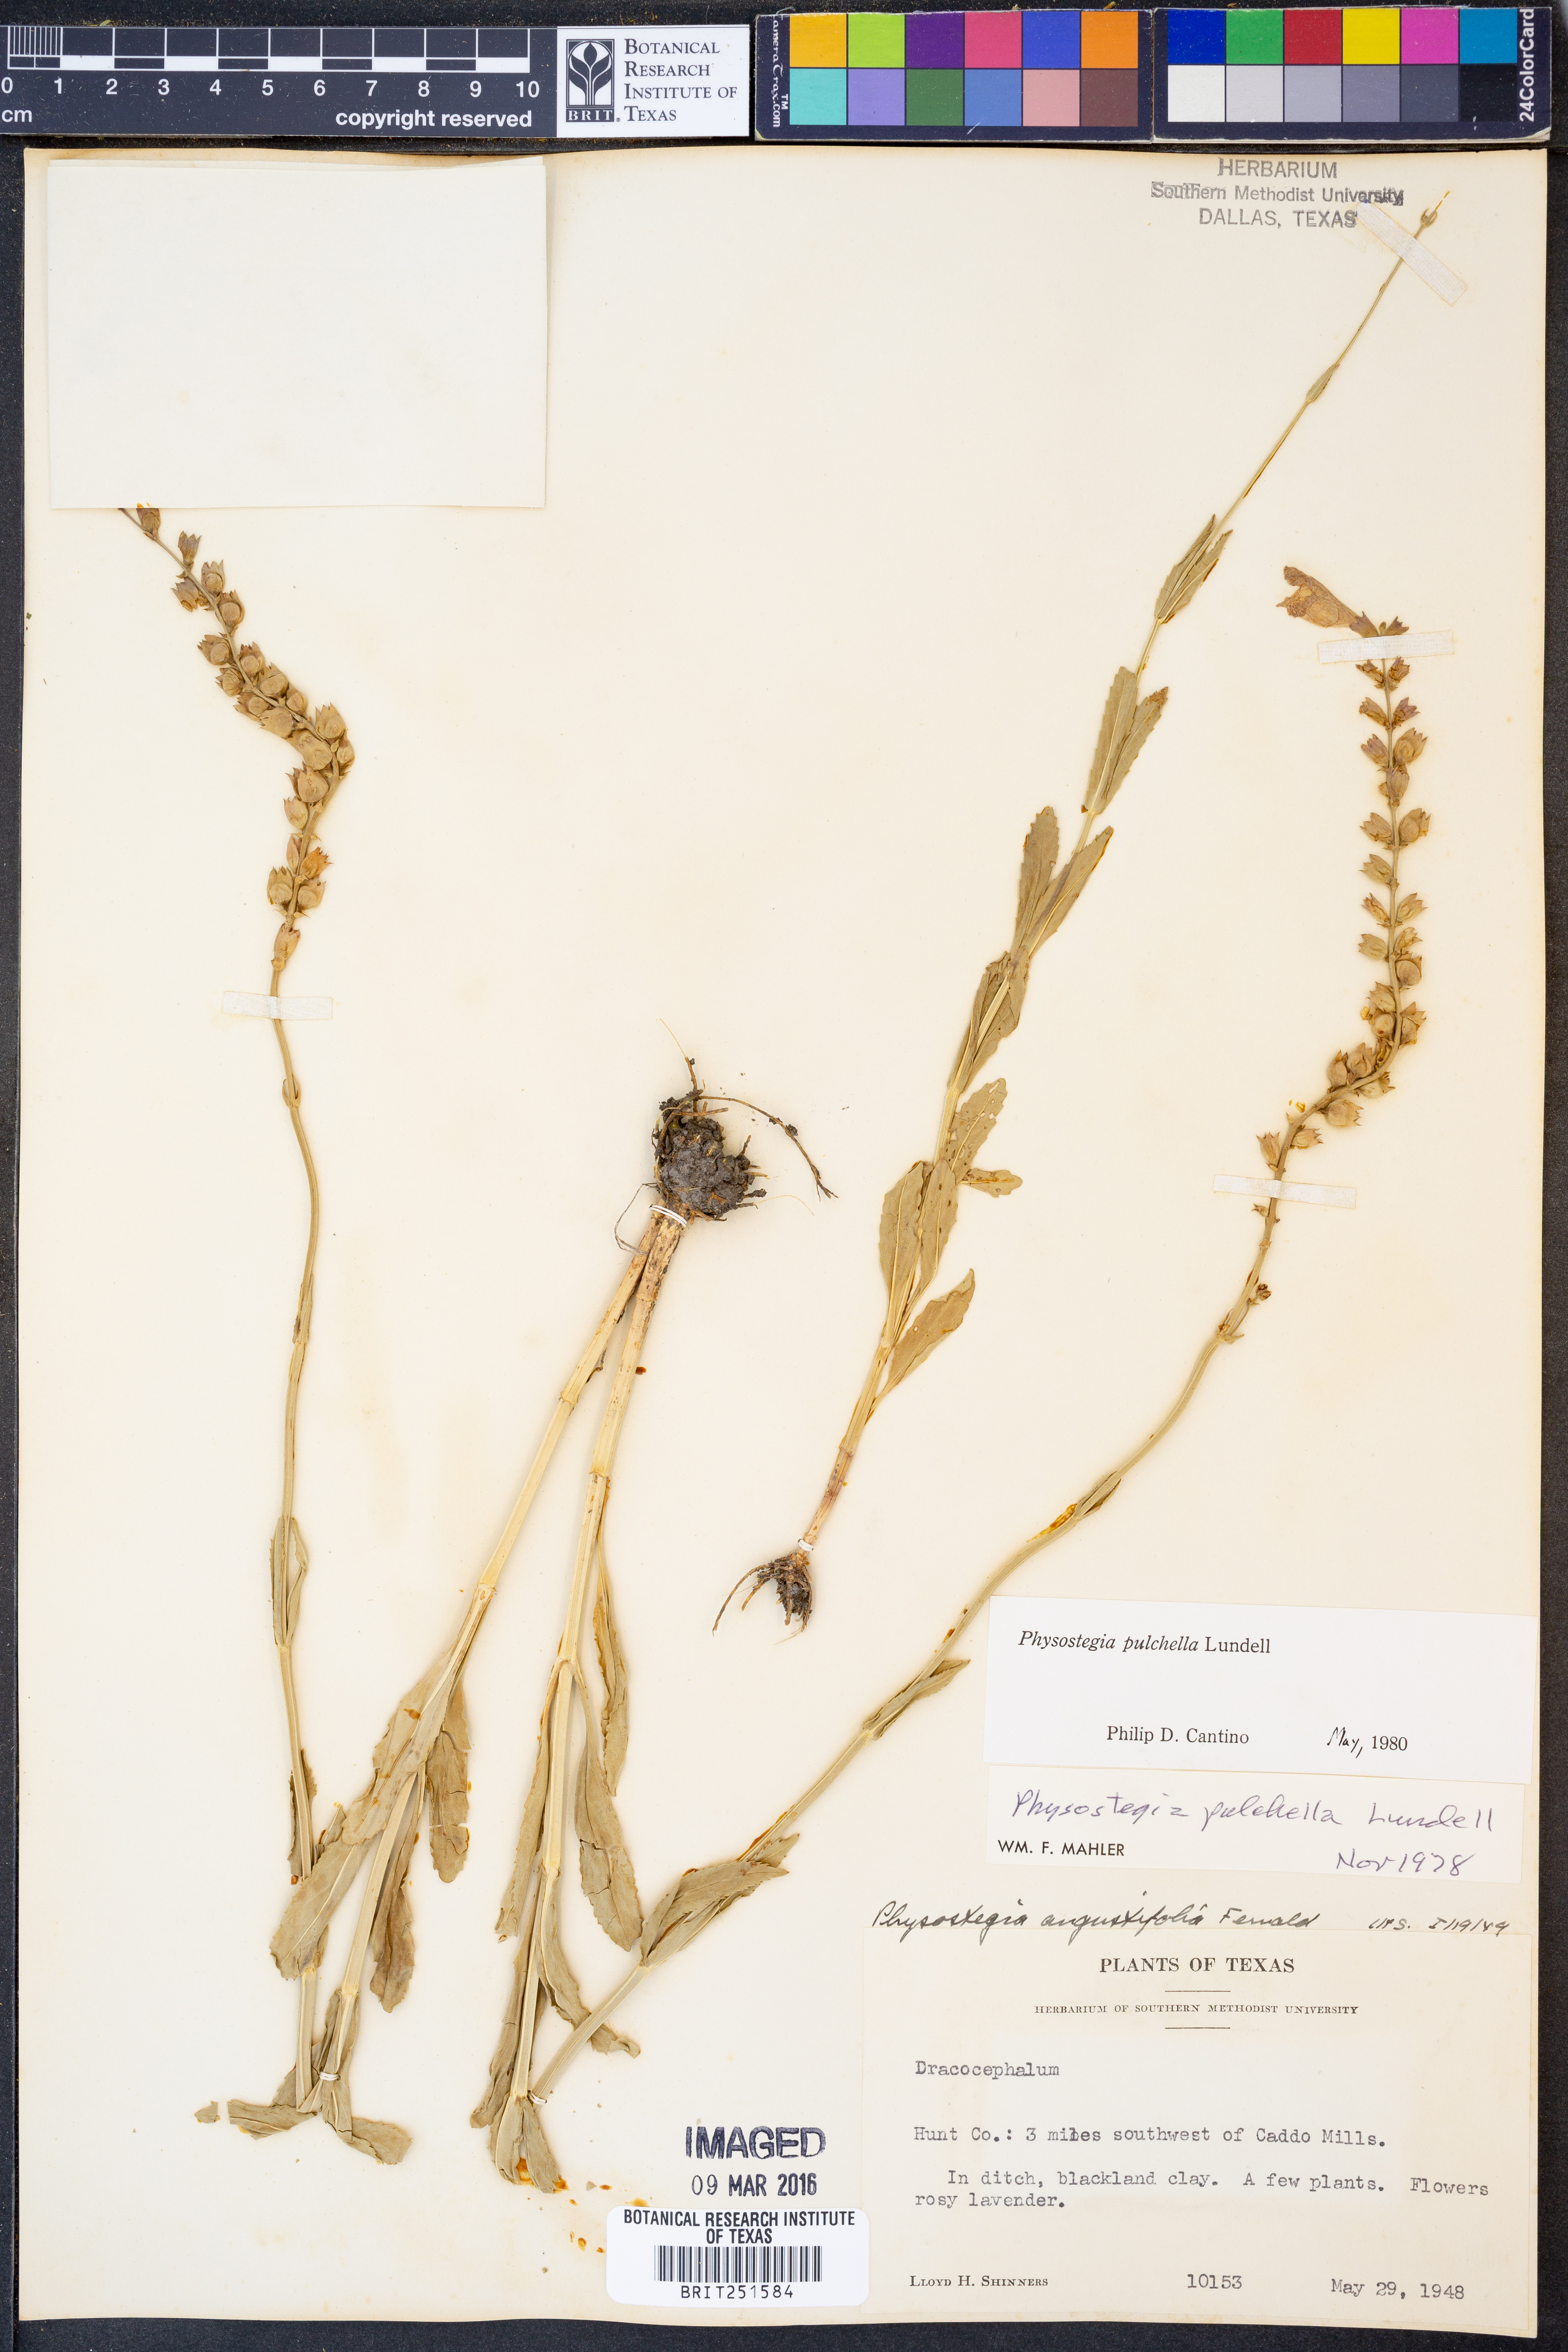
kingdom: Plantae
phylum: Tracheophyta
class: Magnoliopsida
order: Lamiales
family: Lamiaceae
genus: Physostegia
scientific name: Physostegia pulchella
